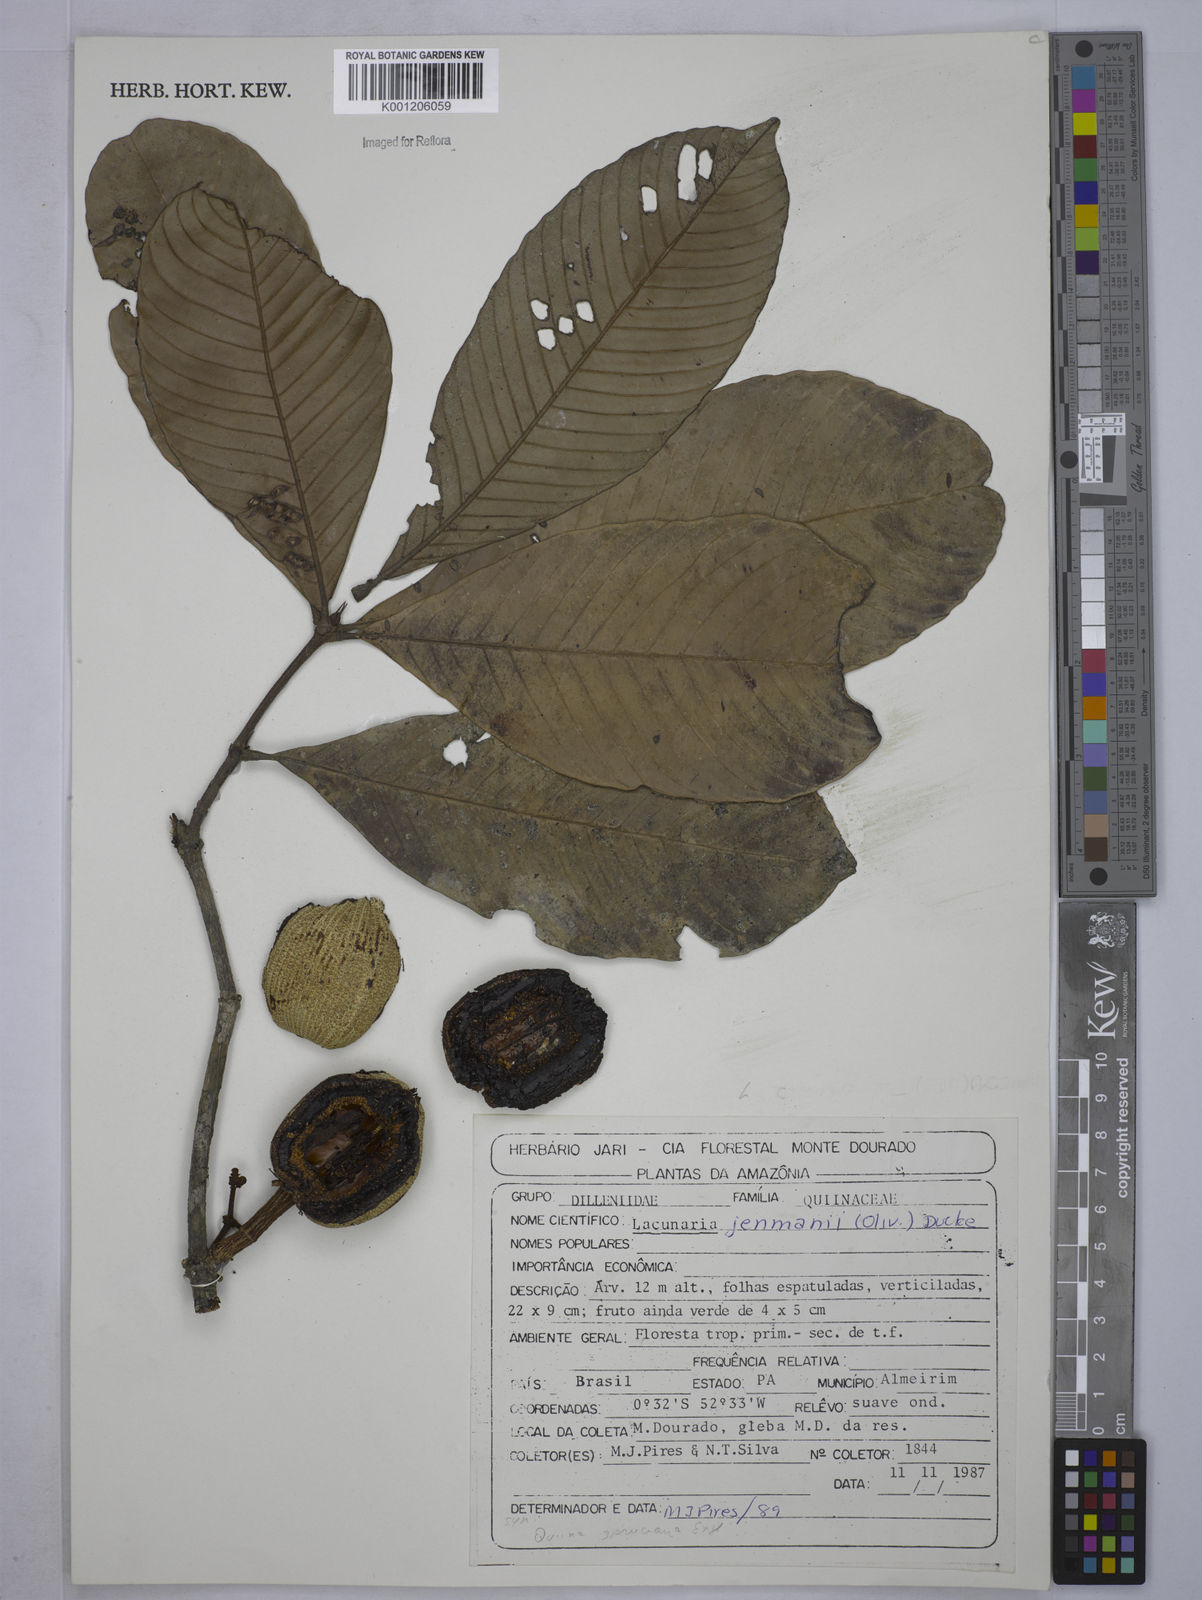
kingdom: Plantae
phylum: Tracheophyta
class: Magnoliopsida
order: Malpighiales
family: Quiinaceae
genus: Lacunaria
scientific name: Lacunaria jenmanii
